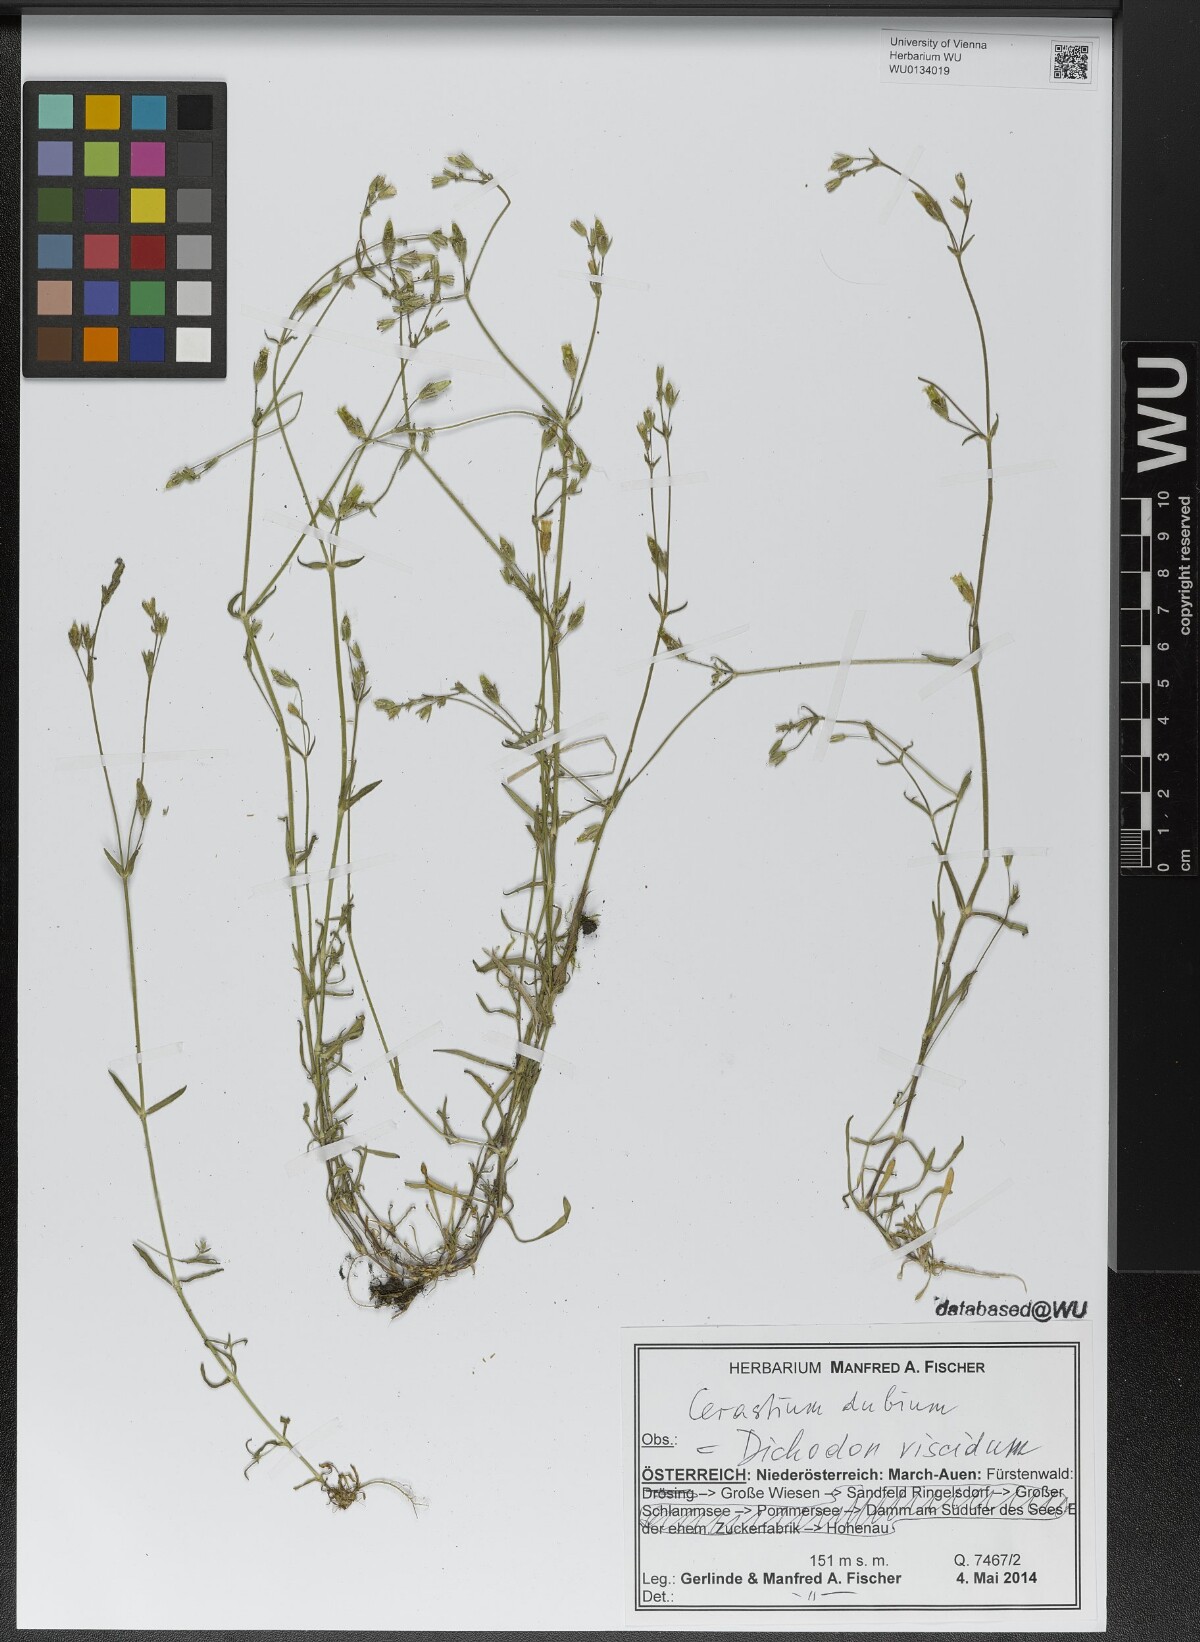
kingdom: Plantae
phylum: Tracheophyta
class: Magnoliopsida
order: Caryophyllales
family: Caryophyllaceae
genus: Dichodon
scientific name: Dichodon viscidum
